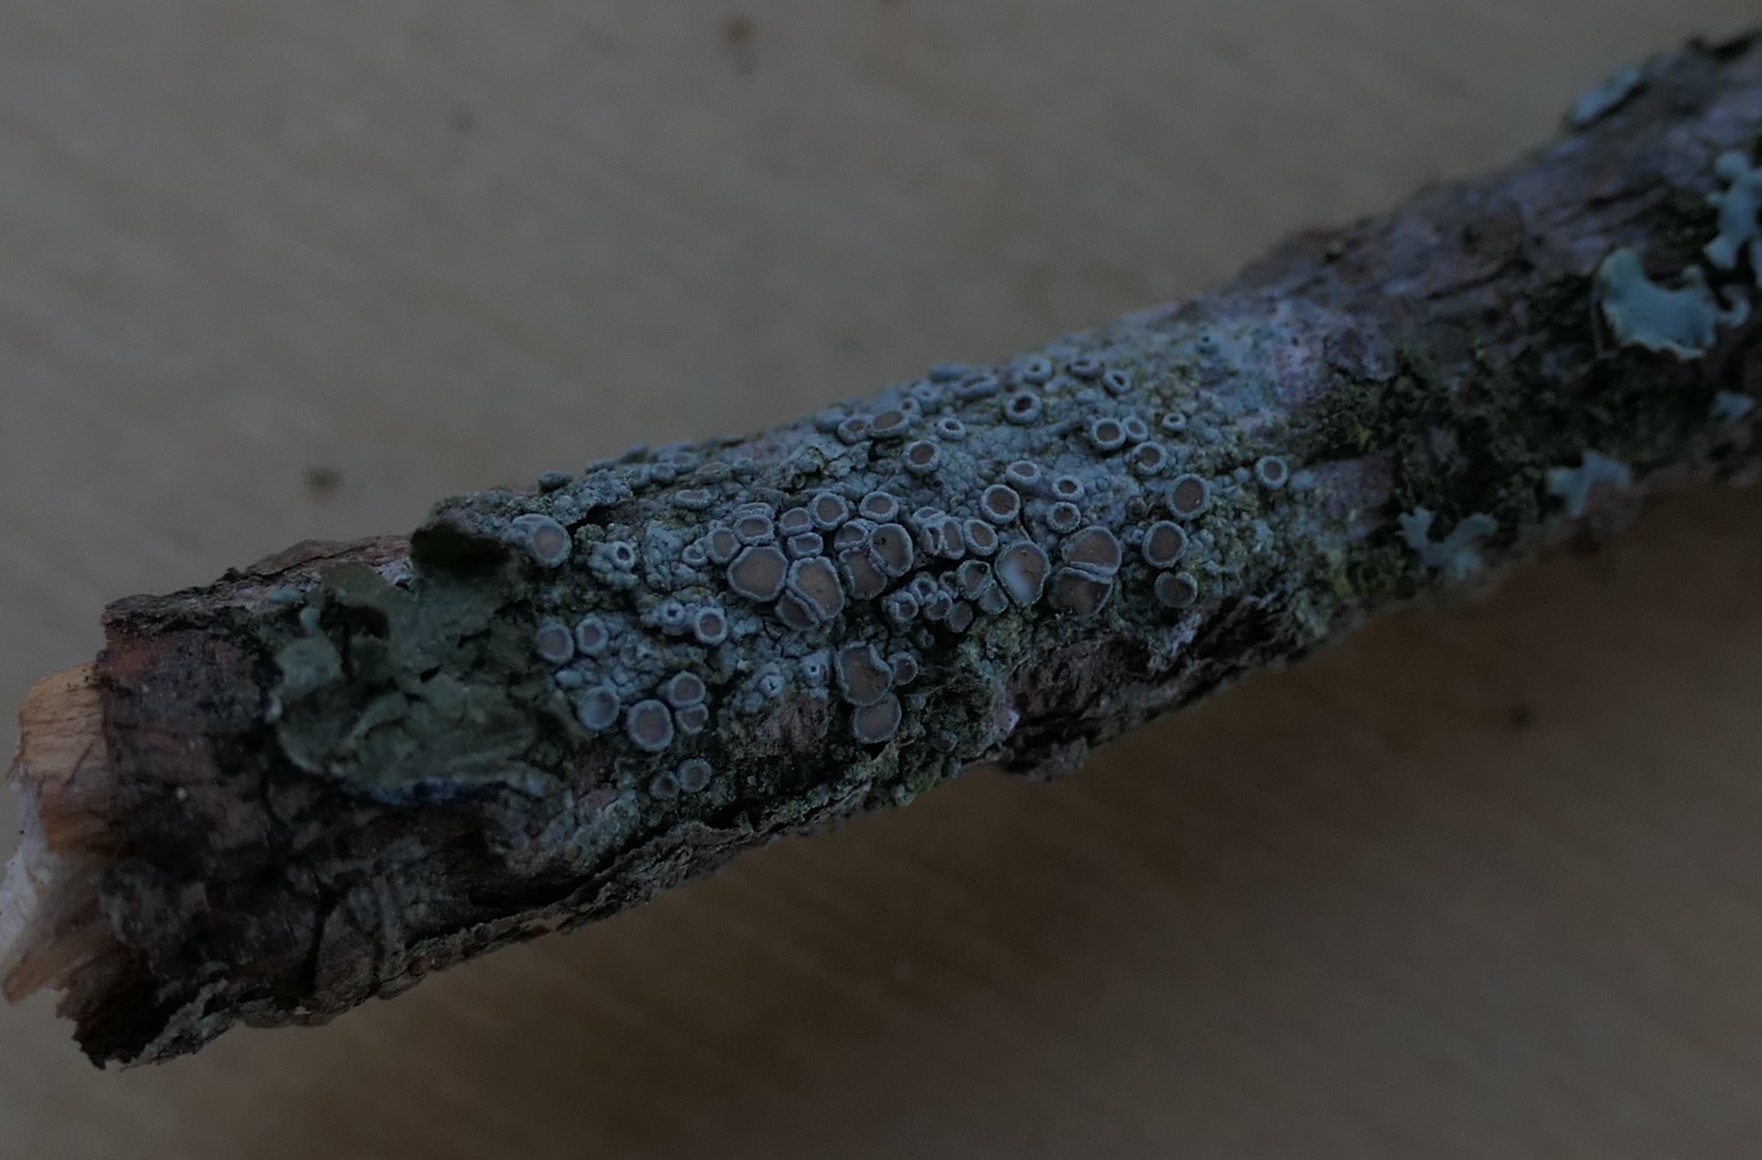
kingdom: Fungi
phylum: Ascomycota
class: Lecanoromycetes
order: Lecanorales
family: Lecanoraceae
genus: Lecanora
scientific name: Lecanora chlarotera
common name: brun kantskivelav
